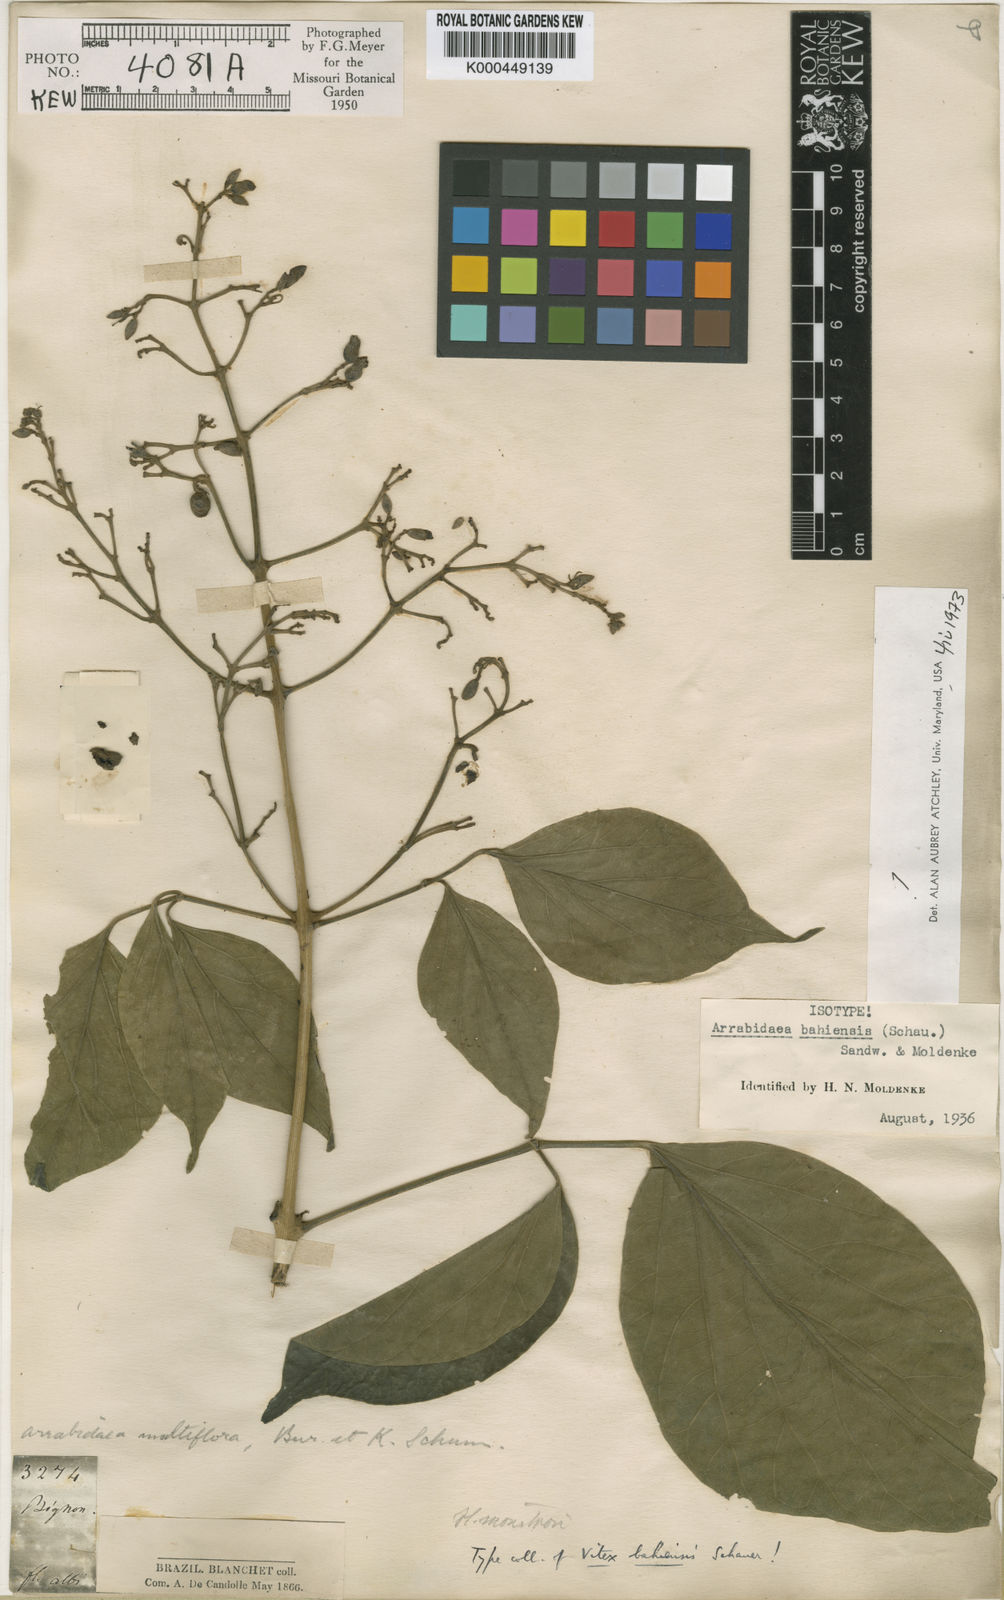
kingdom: Plantae
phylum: Tracheophyta
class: Magnoliopsida
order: Lamiales
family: Bignoniaceae
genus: Fridericia
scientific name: Fridericia bahiensis
